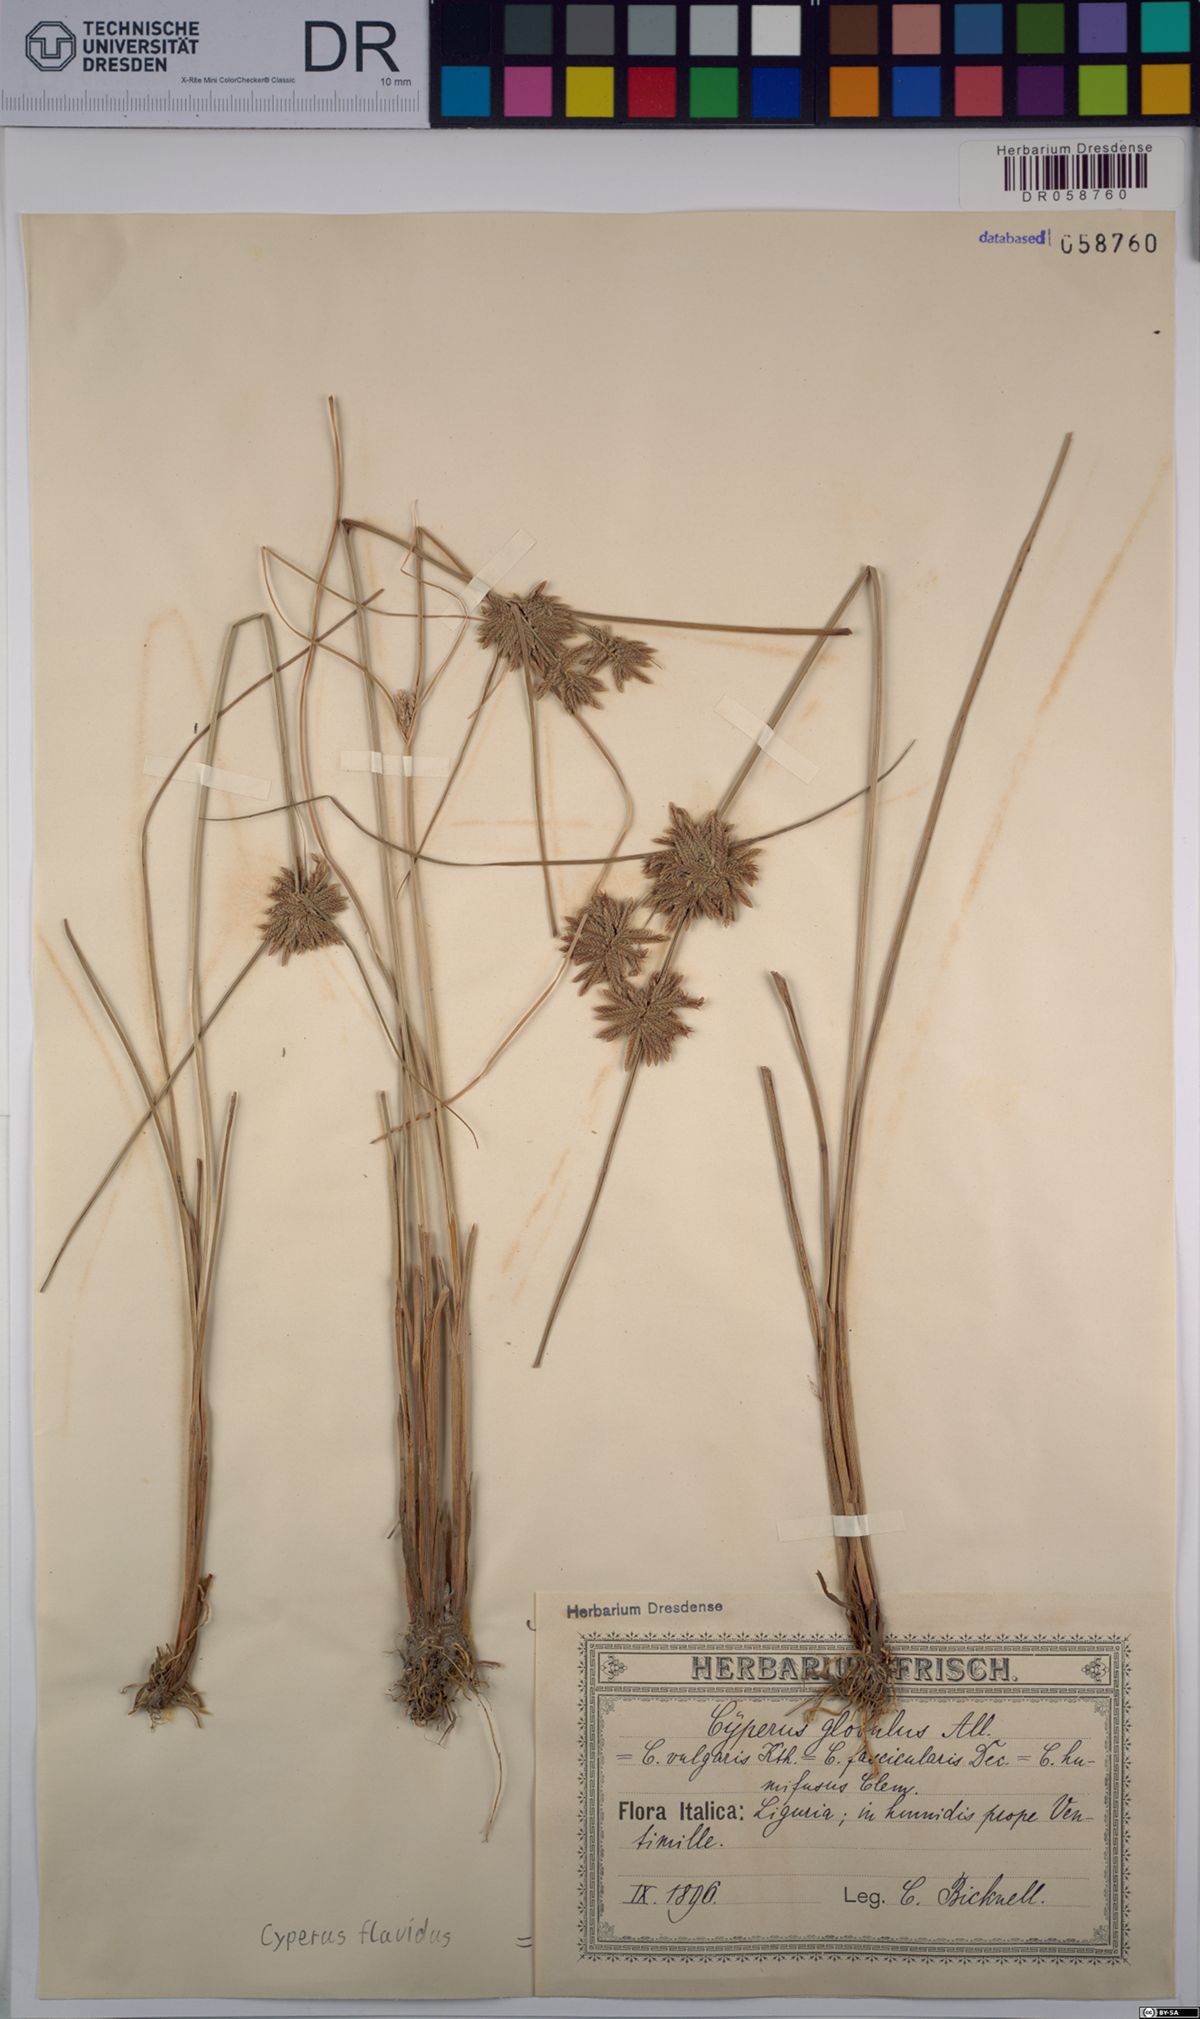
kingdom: Plantae
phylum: Tracheophyta
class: Liliopsida
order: Poales
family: Cyperaceae
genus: Cyperus
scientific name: Cyperus flavidus
